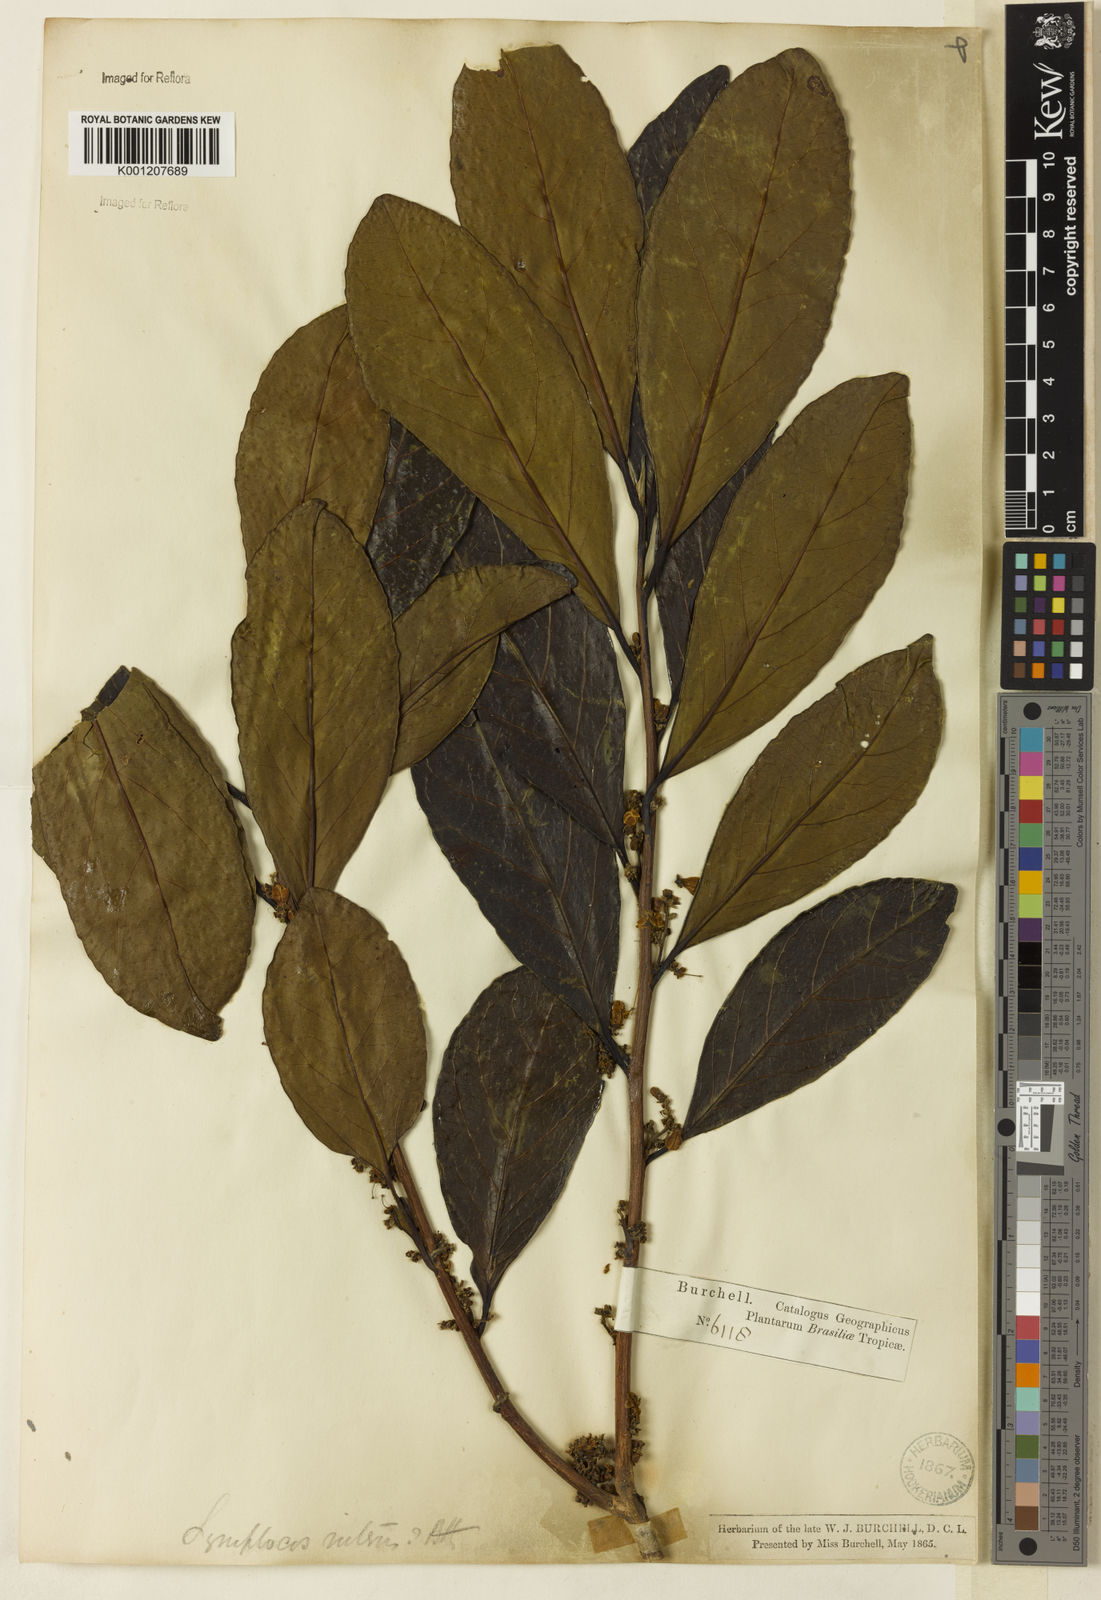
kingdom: Plantae
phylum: Tracheophyta
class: Magnoliopsida
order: Ericales
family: Symplocaceae
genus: Symplocos
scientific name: Symplocos nitens
